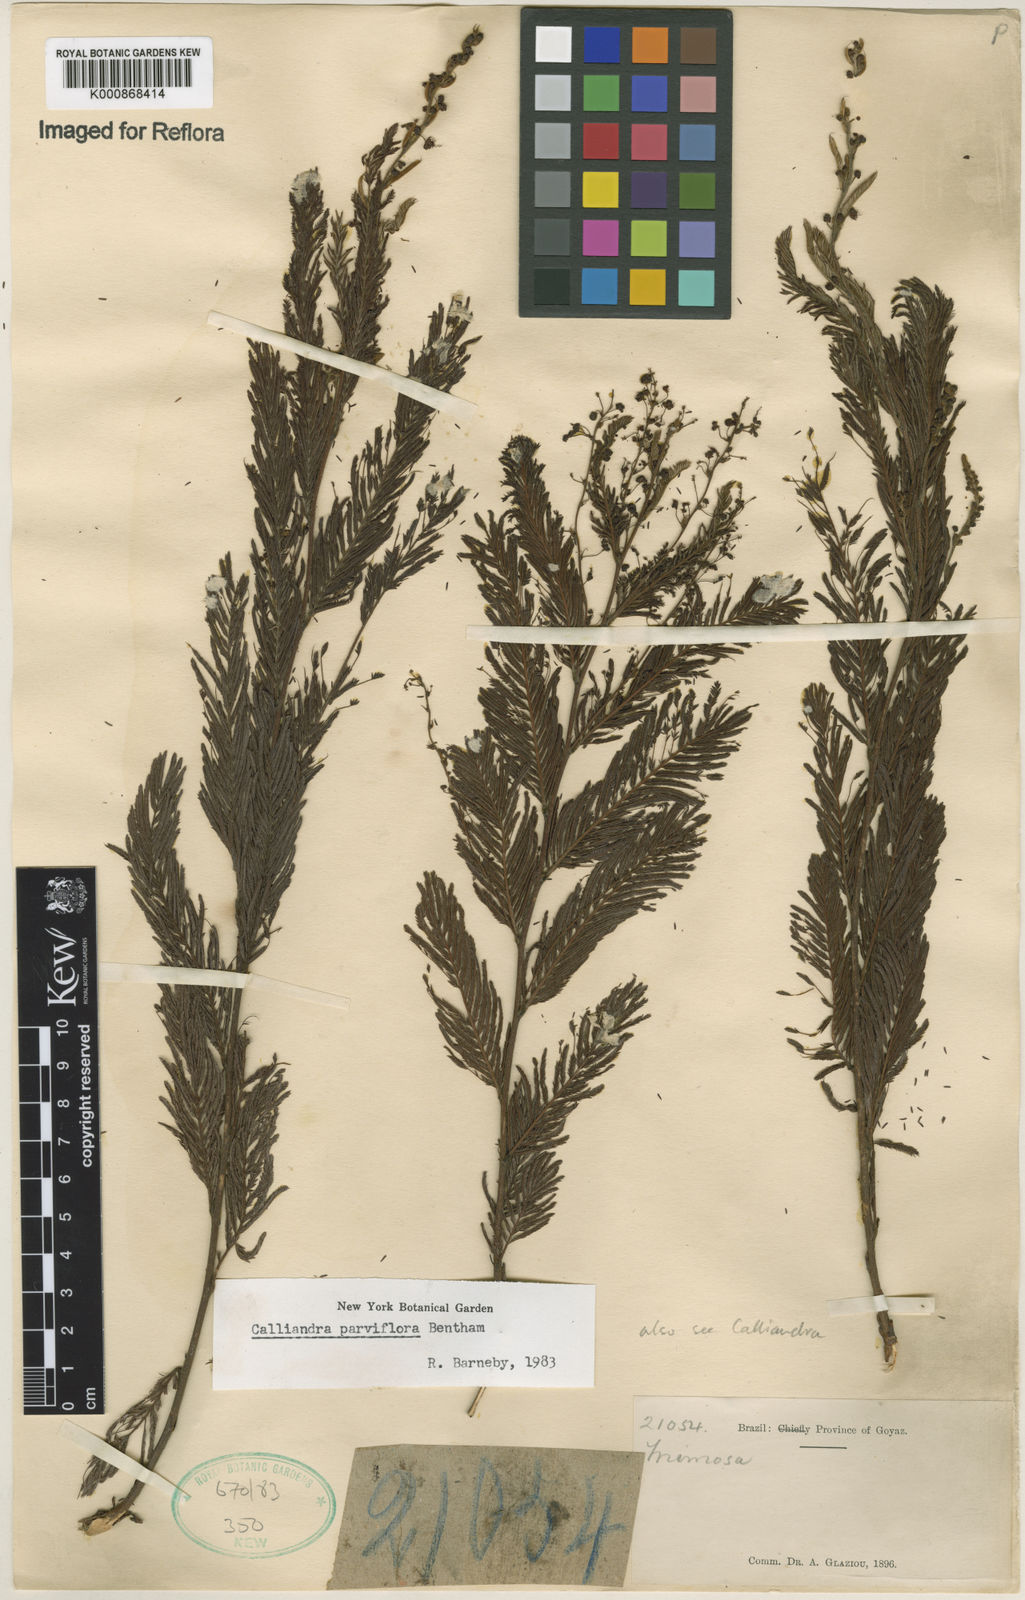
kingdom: Plantae
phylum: Tracheophyta
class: Magnoliopsida
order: Fabales
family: Fabaceae
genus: Calliandra
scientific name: Calliandra parviflora
